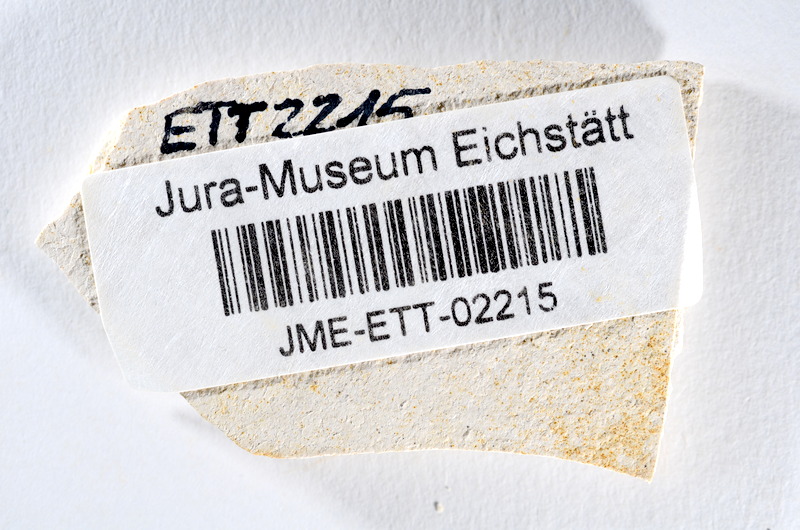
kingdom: Animalia
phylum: Chordata
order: Salmoniformes
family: Orthogonikleithridae
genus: Orthogonikleithrus
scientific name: Orthogonikleithrus hoelli
